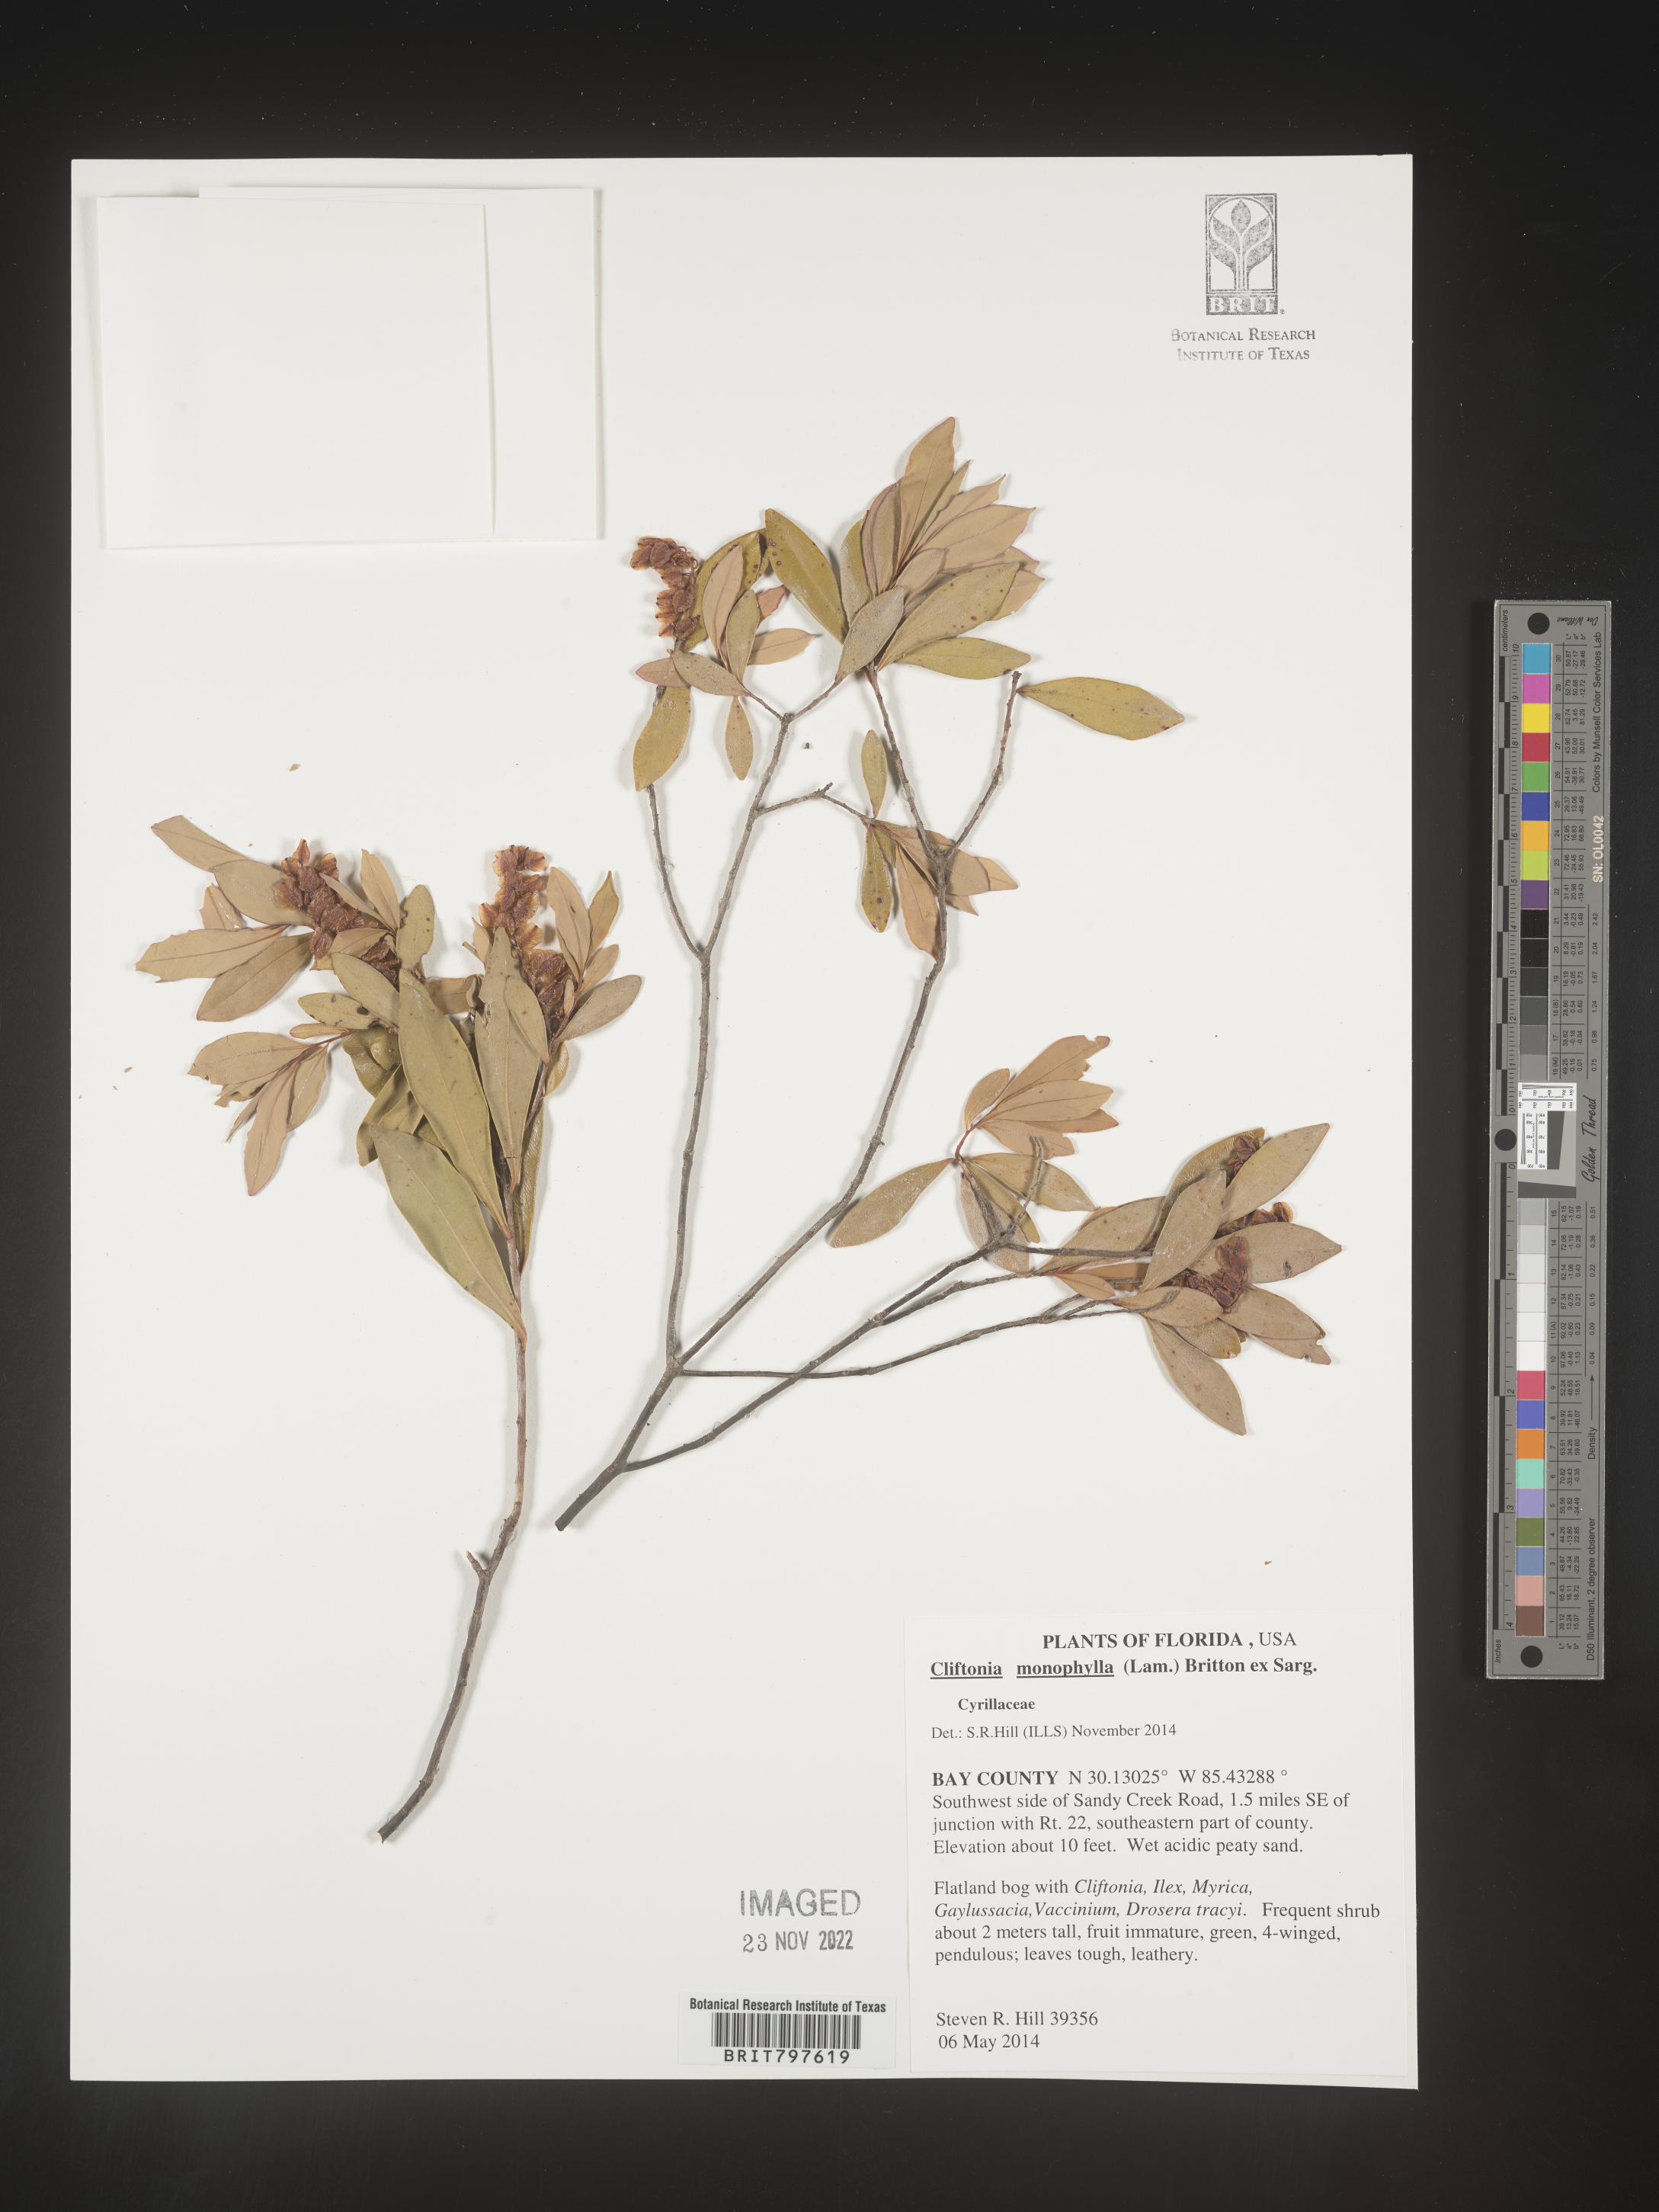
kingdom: Plantae
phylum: Tracheophyta
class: Magnoliopsida
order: Ericales
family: Cyrillaceae
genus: Cliftonia
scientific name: Cliftonia monophylla
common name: Titi
